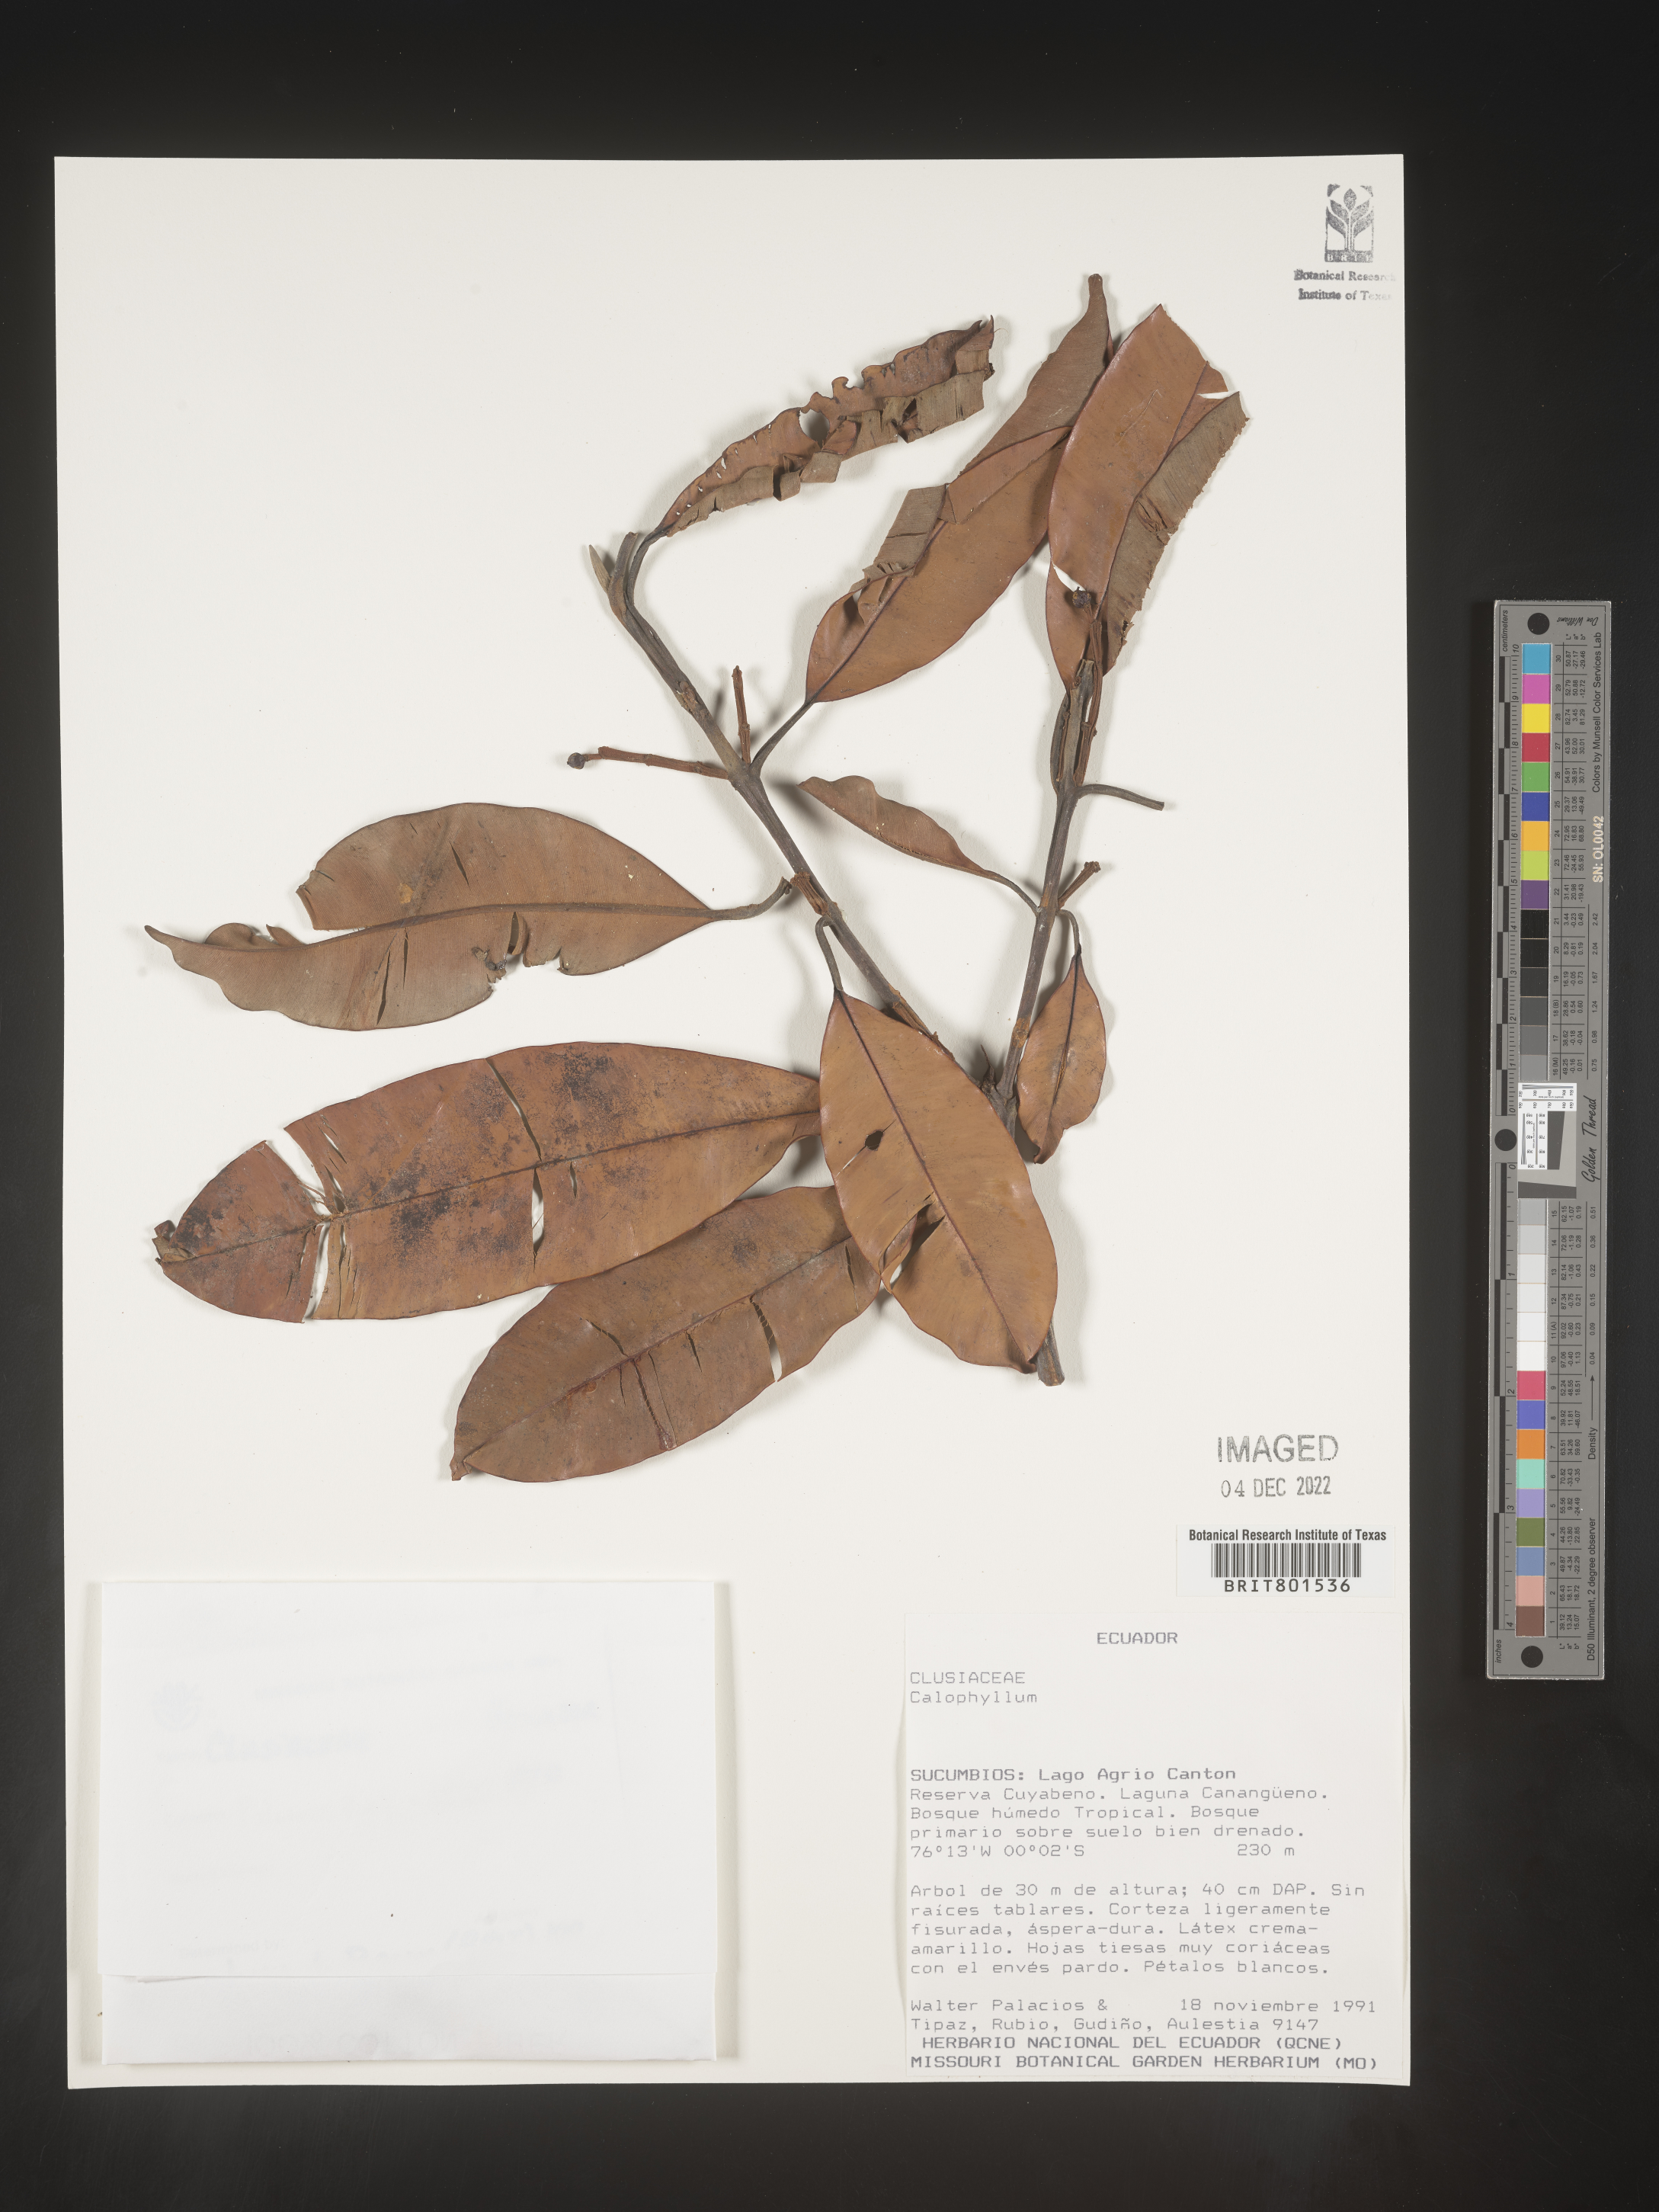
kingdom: Plantae
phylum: Tracheophyta
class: Magnoliopsida
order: Malpighiales
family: Calophyllaceae
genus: Calophyllum
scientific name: Calophyllum
